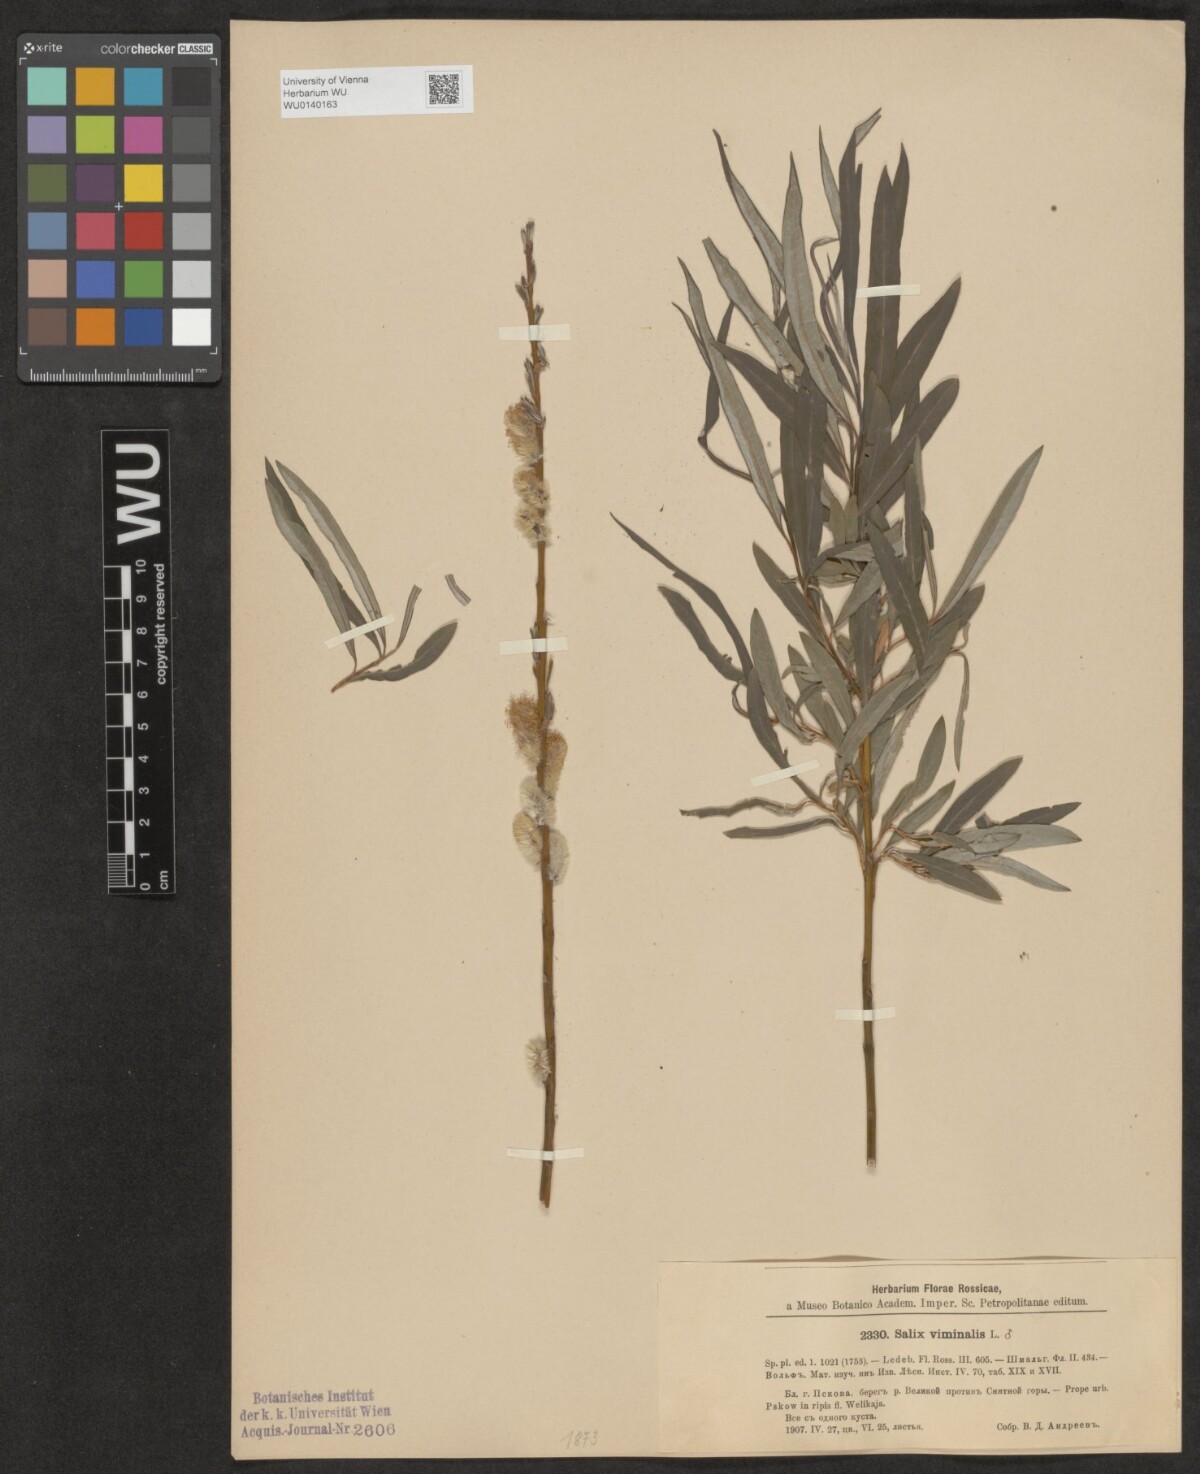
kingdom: Plantae
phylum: Tracheophyta
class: Magnoliopsida
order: Malpighiales
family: Salicaceae
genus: Salix
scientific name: Salix viminalis
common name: Osier
